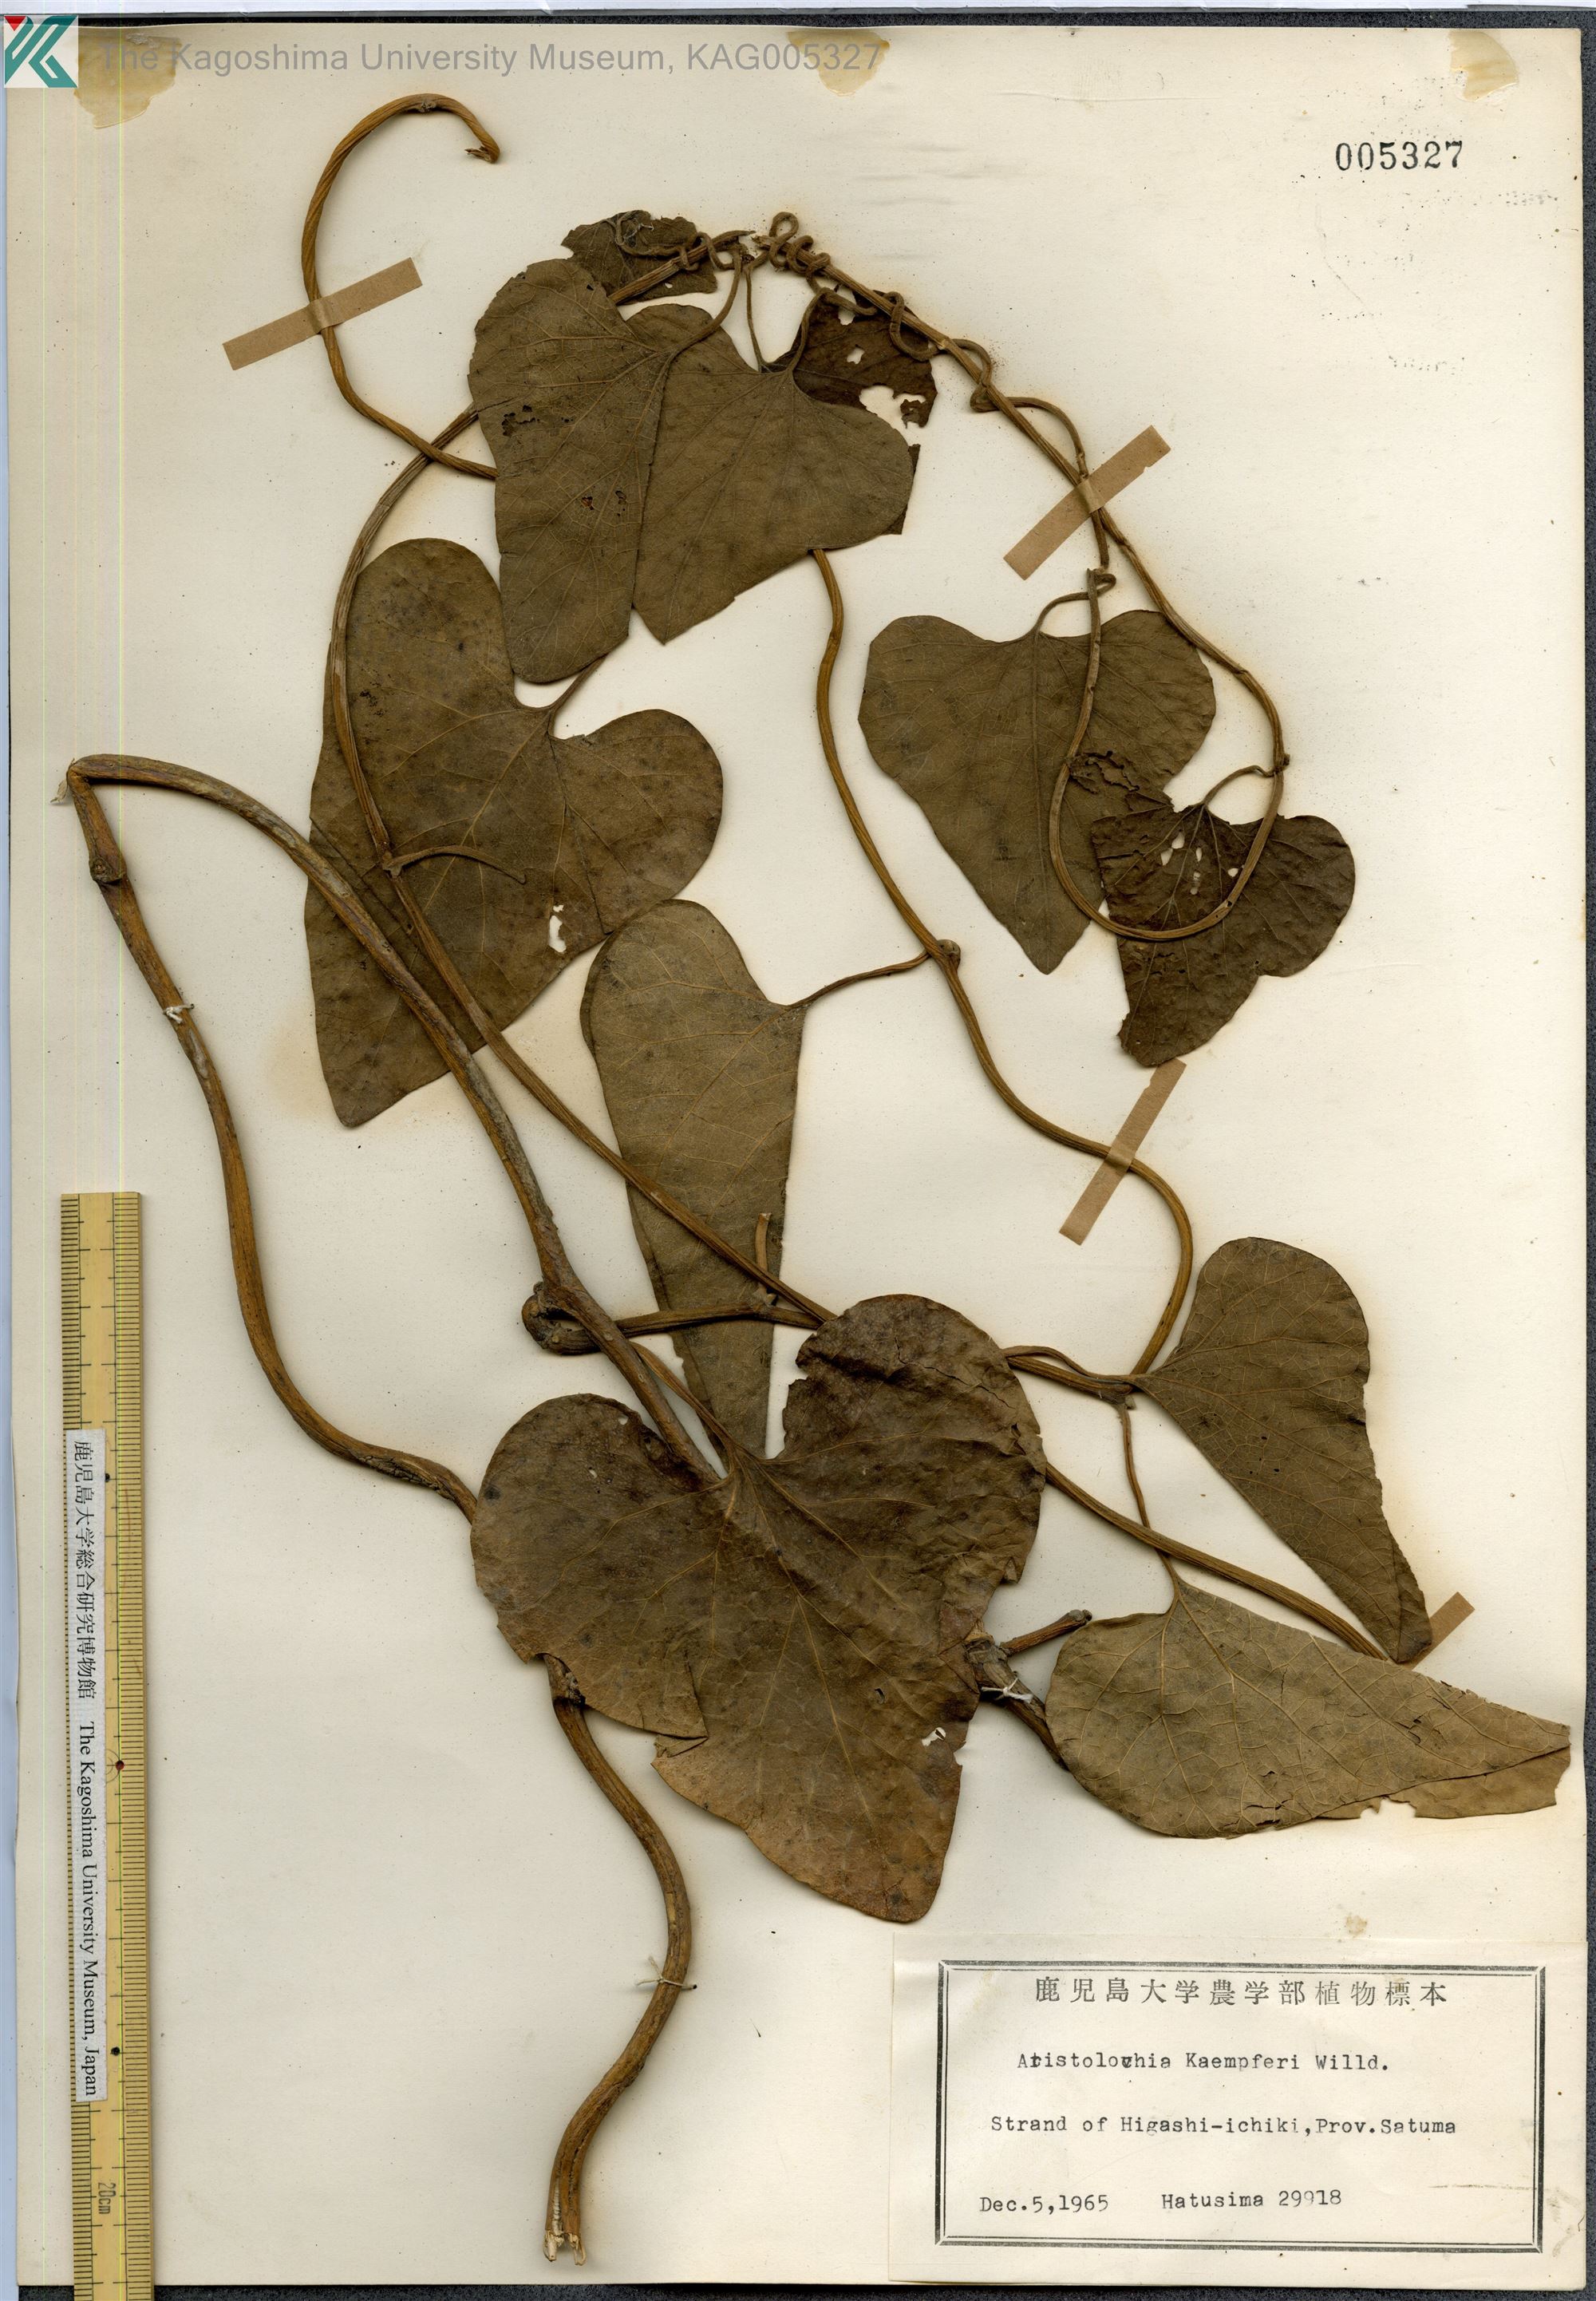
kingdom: Plantae
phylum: Tracheophyta
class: Magnoliopsida
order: Piperales
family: Aristolochiaceae
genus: Isotrema
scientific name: Isotrema kaempferi
